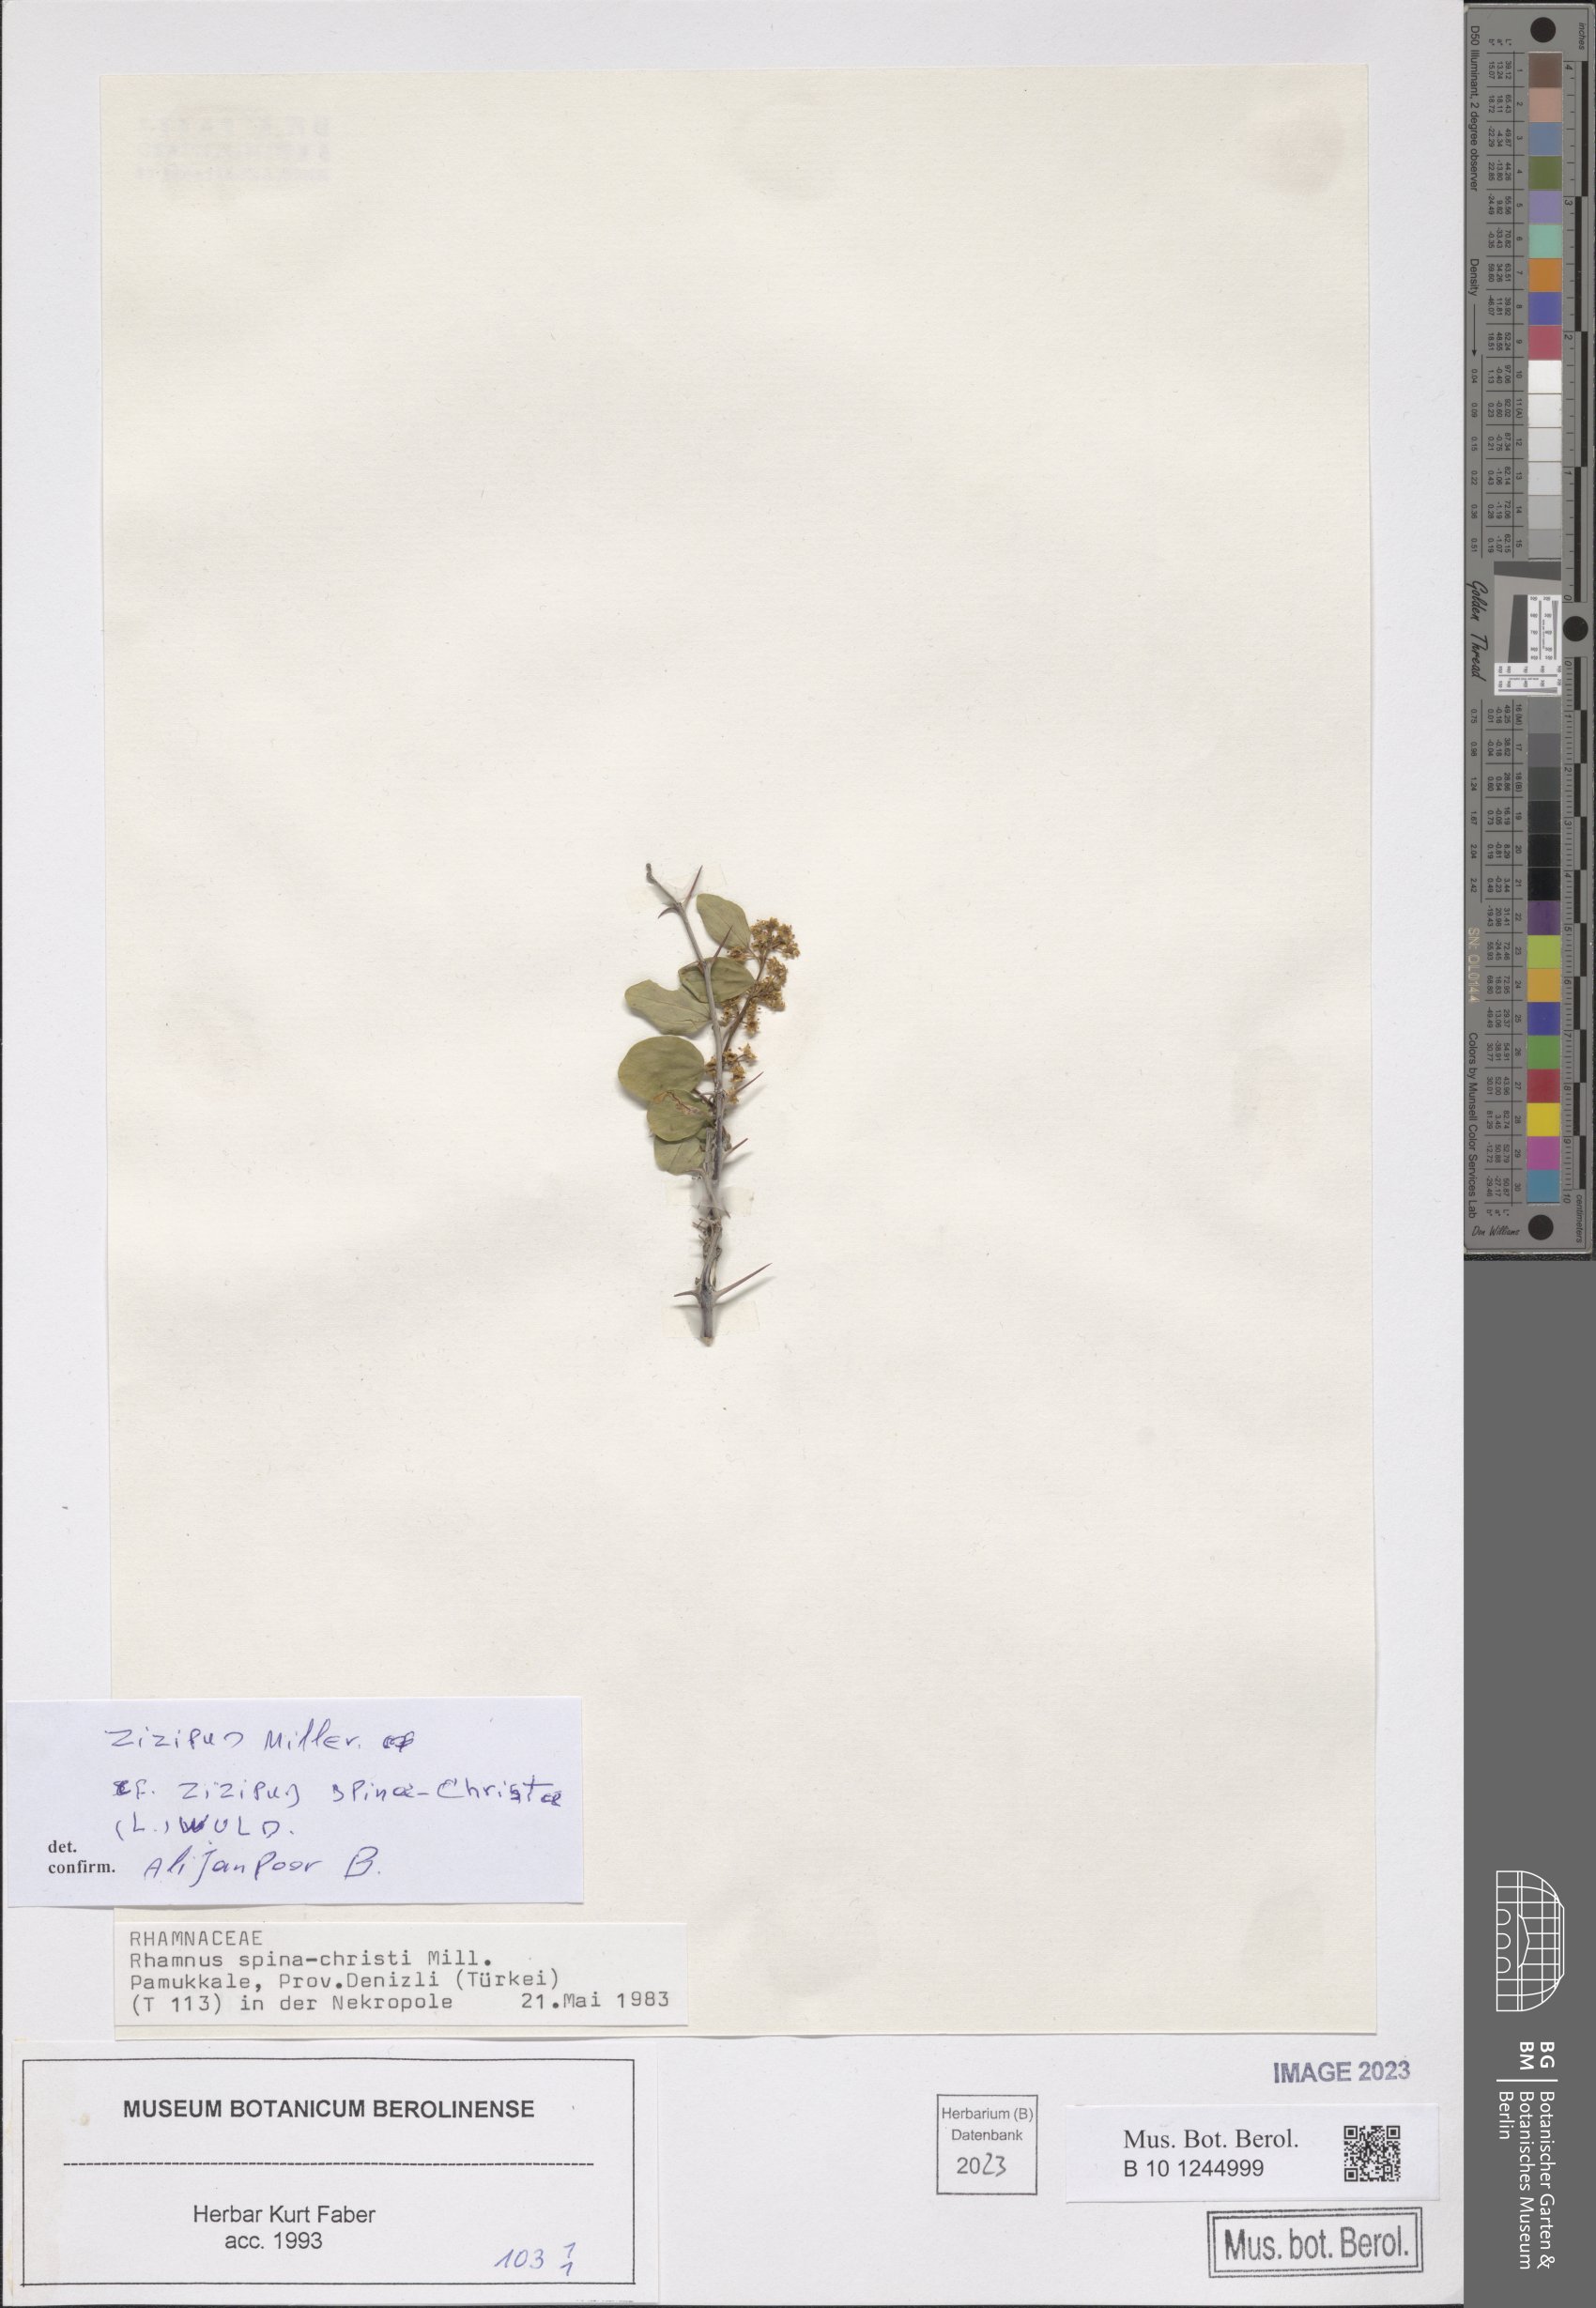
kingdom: Plantae
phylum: Tracheophyta
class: Magnoliopsida
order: Rosales
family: Rhamnaceae
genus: Ziziphus
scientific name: Ziziphus spina-christi
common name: Syrian christ-thorn
